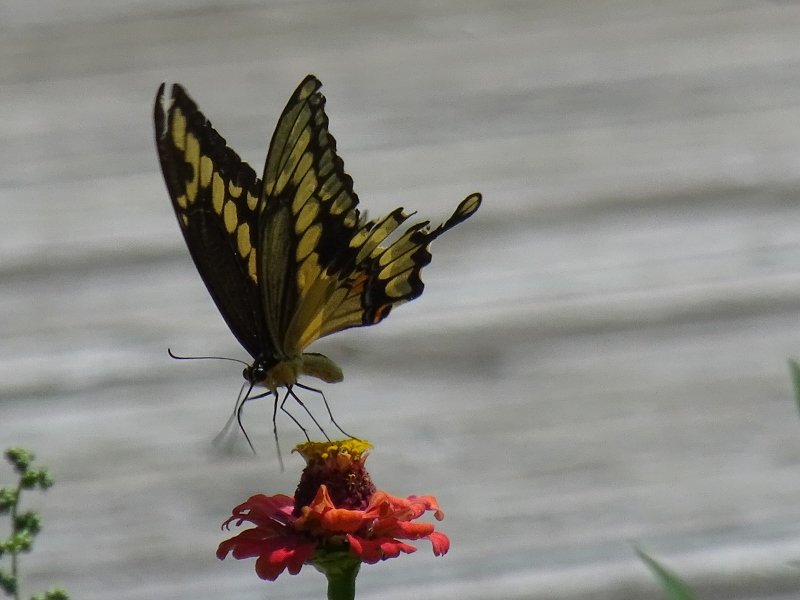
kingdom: Animalia
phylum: Arthropoda
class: Insecta
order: Lepidoptera
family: Papilionidae
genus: Papilio
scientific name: Papilio cresphontes
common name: Eastern Giant Swallowtail
